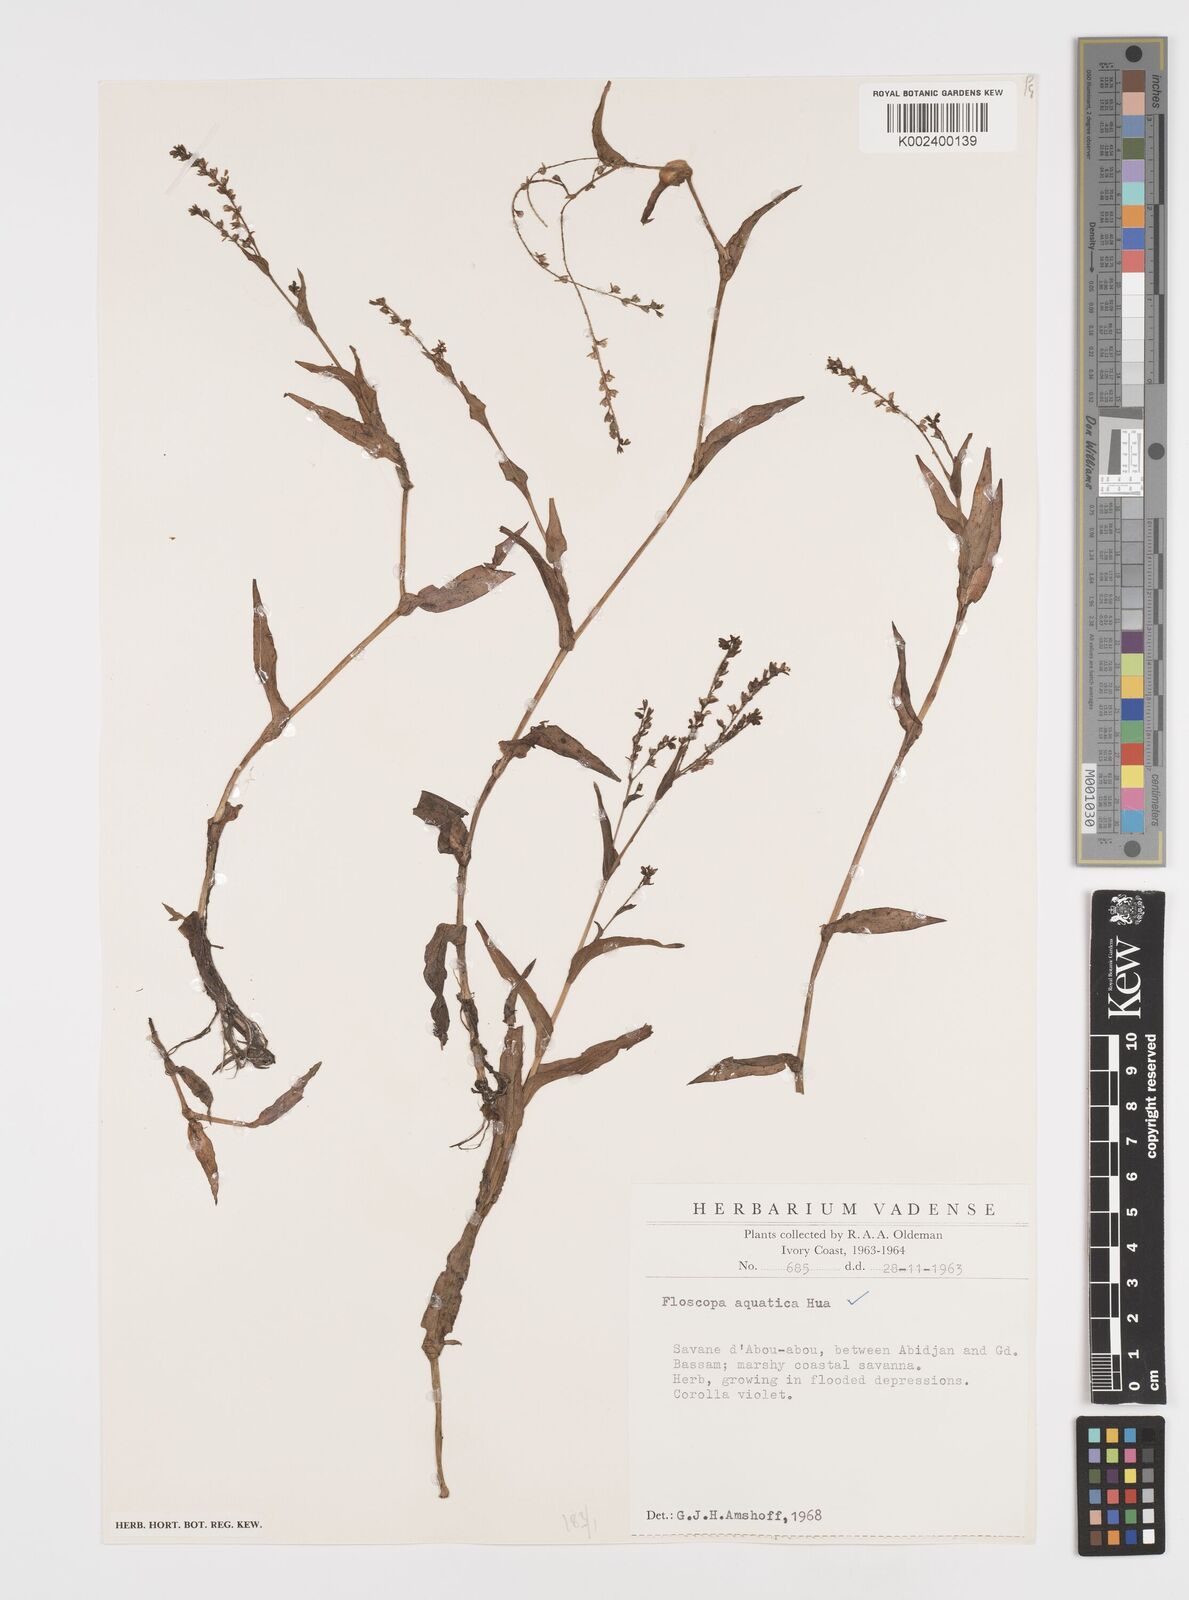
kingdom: Plantae
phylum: Tracheophyta
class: Liliopsida
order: Commelinales
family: Commelinaceae
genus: Floscopa
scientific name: Floscopa aquatica
